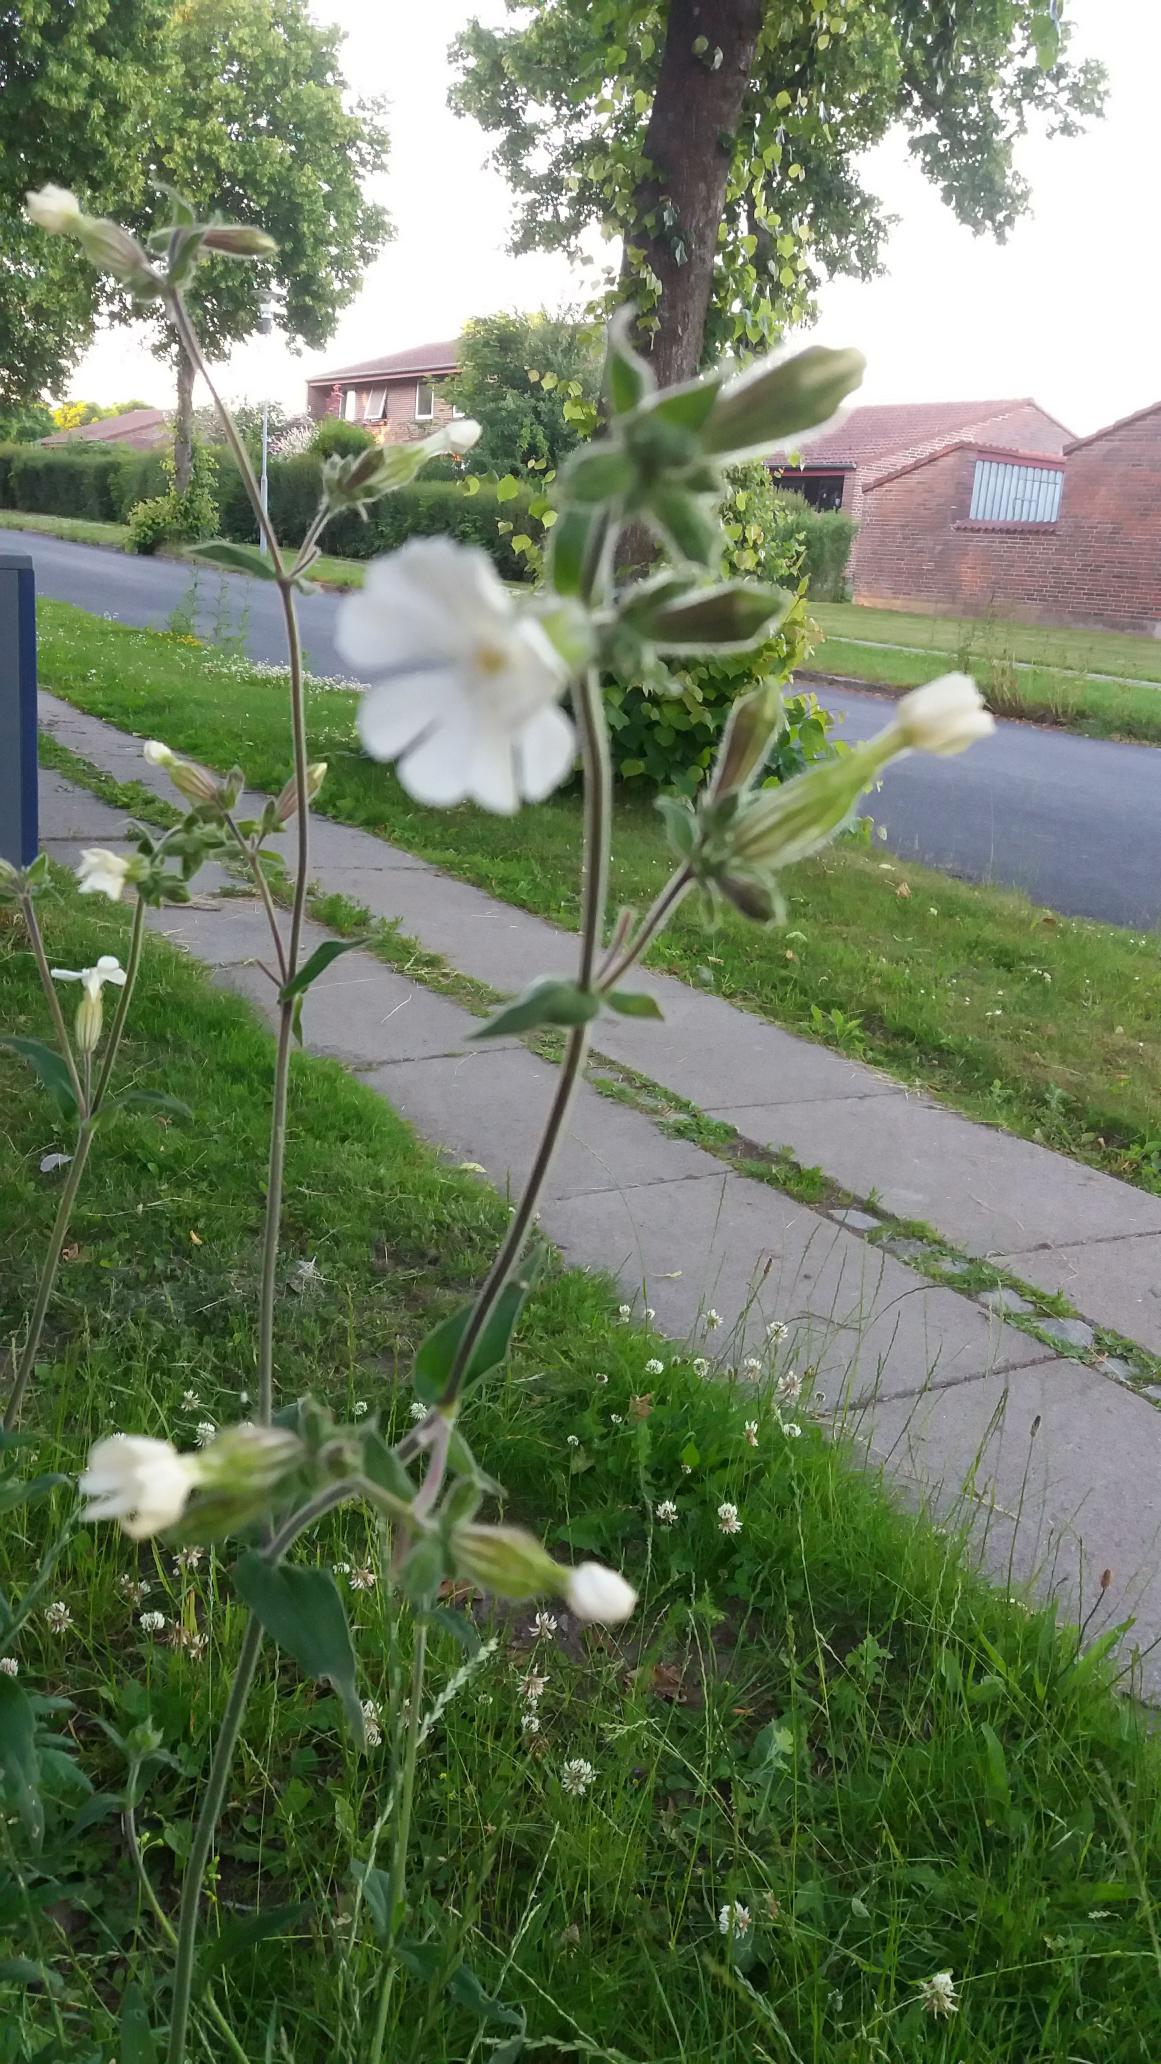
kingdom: Plantae
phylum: Tracheophyta
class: Magnoliopsida
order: Caryophyllales
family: Caryophyllaceae
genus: Silene
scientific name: Silene latifolia
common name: Aftenpragtstjerne
